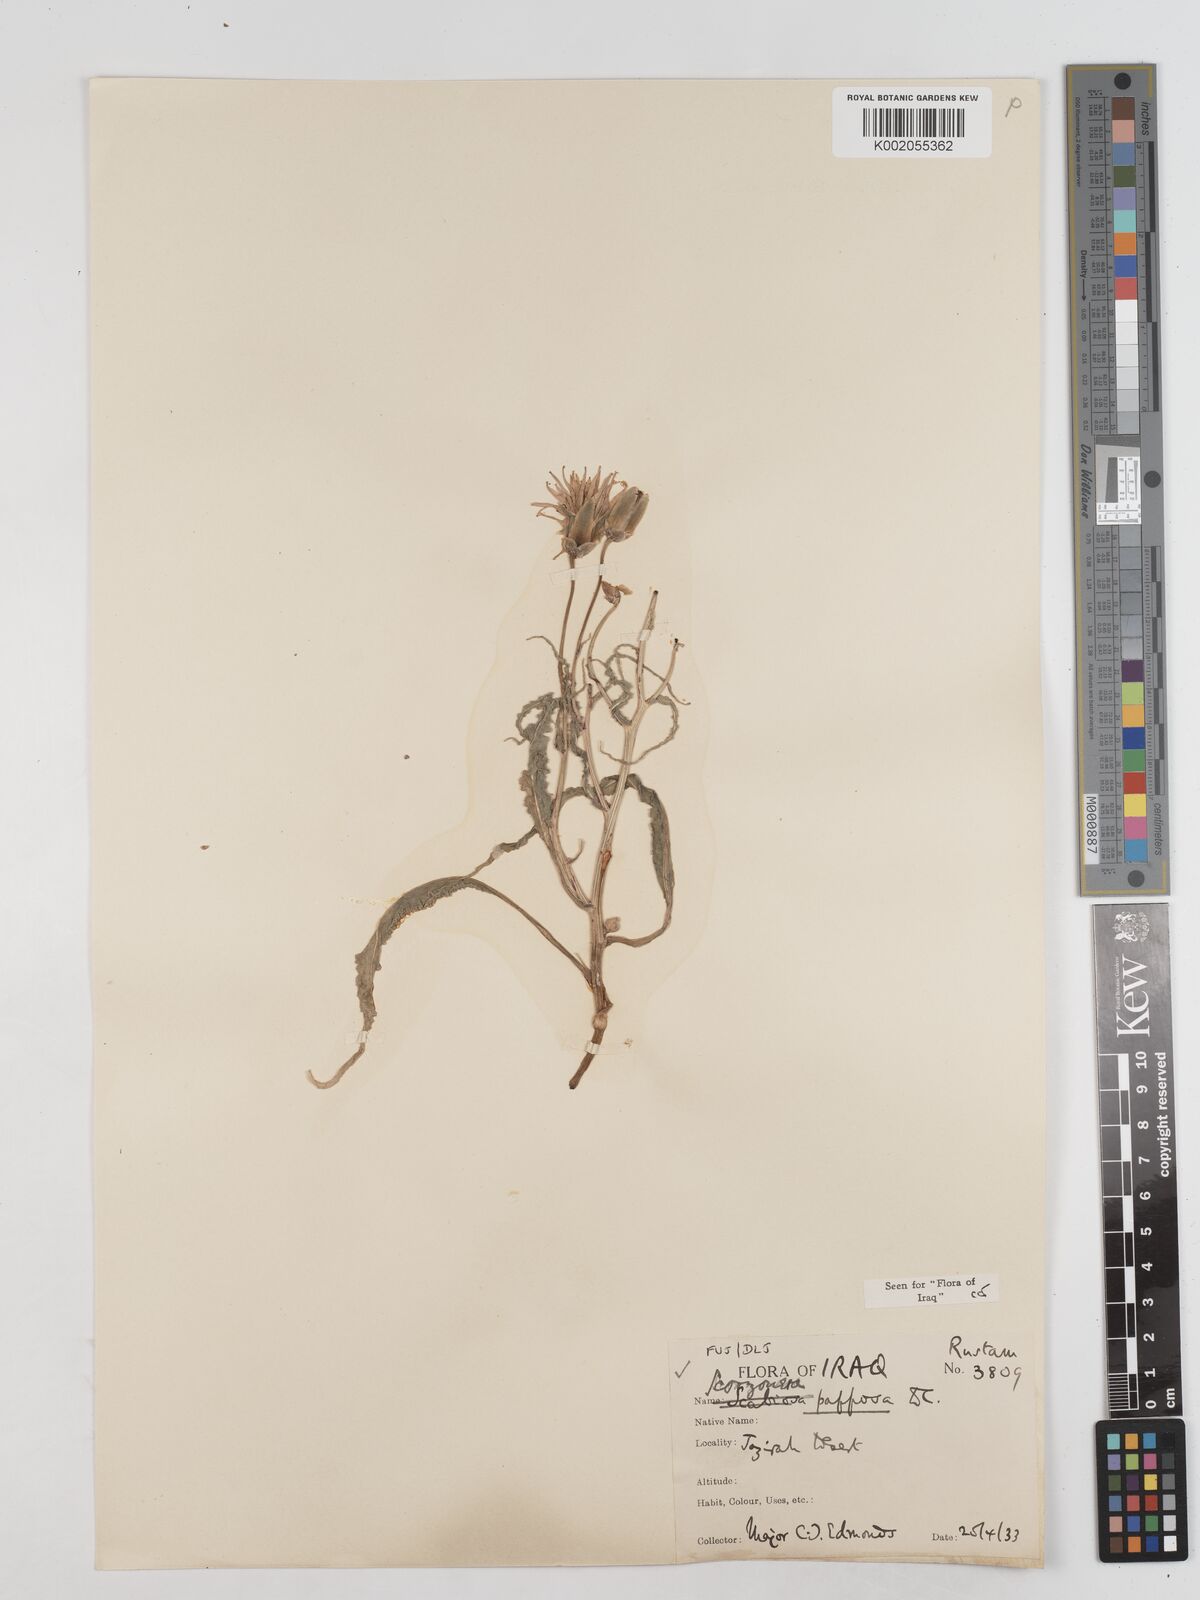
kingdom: Plantae
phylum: Tracheophyta
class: Magnoliopsida
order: Asterales
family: Asteraceae
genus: Pseudopodospermum
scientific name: Pseudopodospermum papposum
